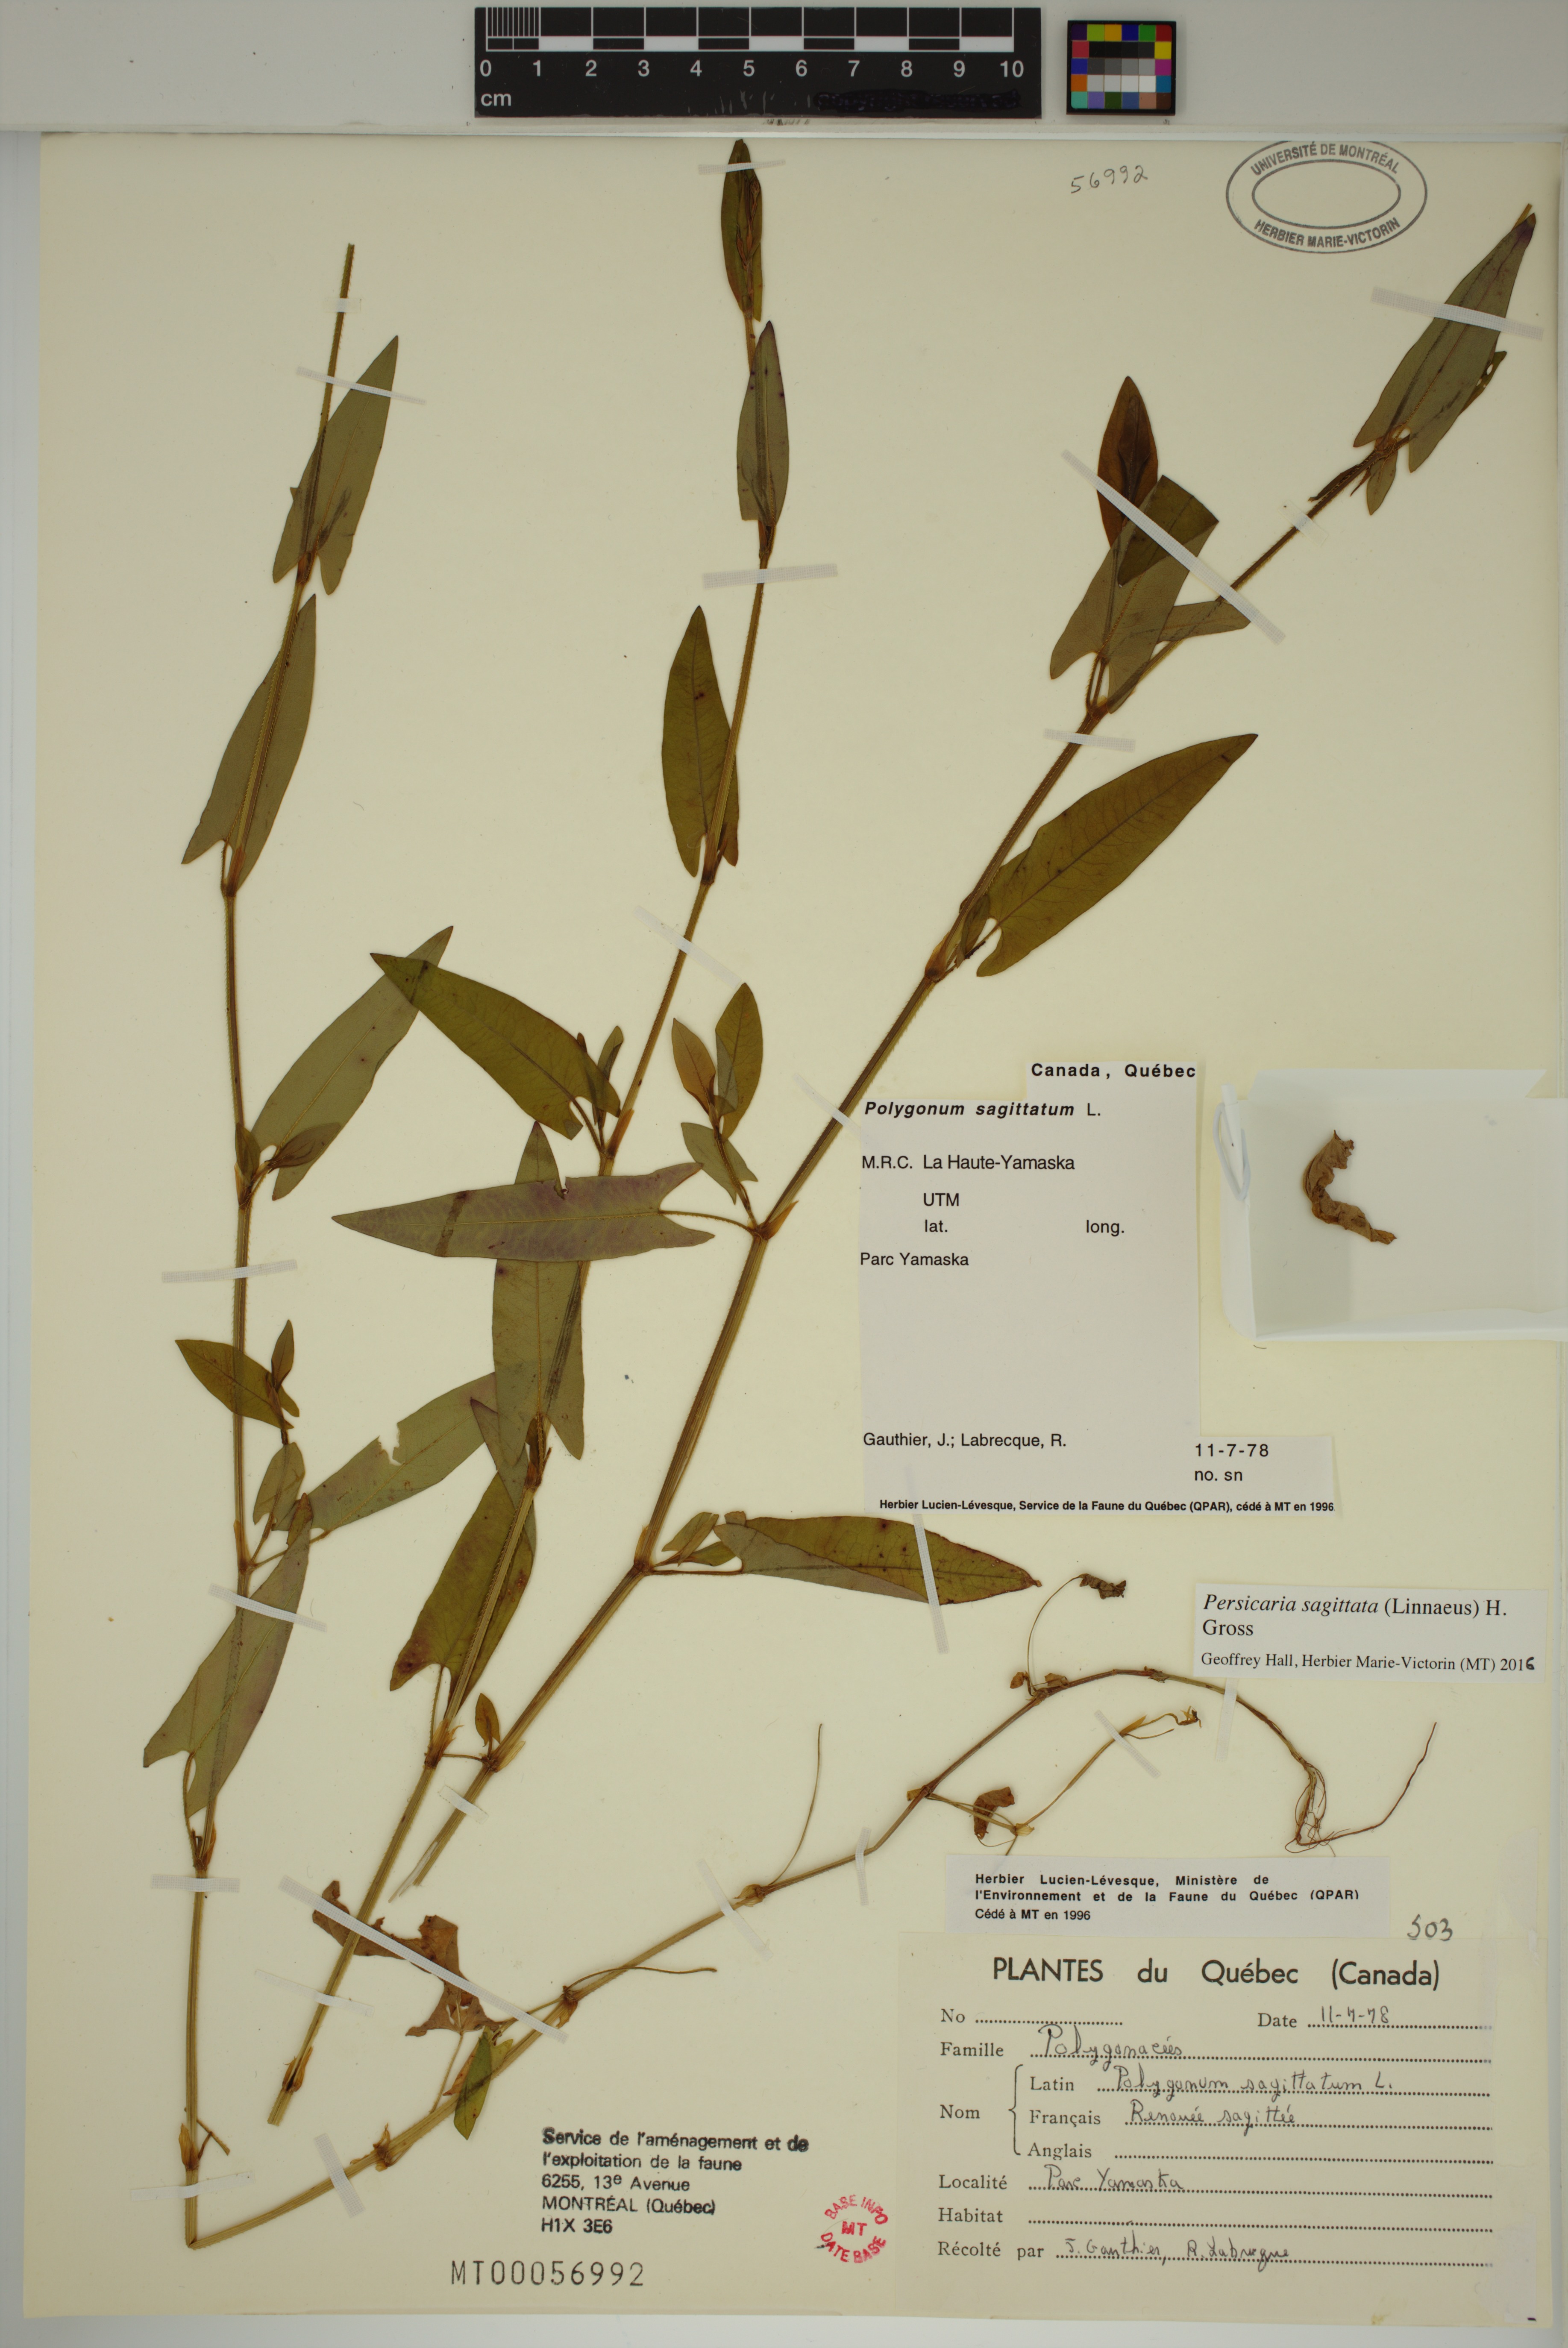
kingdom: Plantae
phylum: Tracheophyta
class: Magnoliopsida
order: Caryophyllales
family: Polygonaceae
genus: Persicaria
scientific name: Persicaria sagittata
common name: American tearthumb
